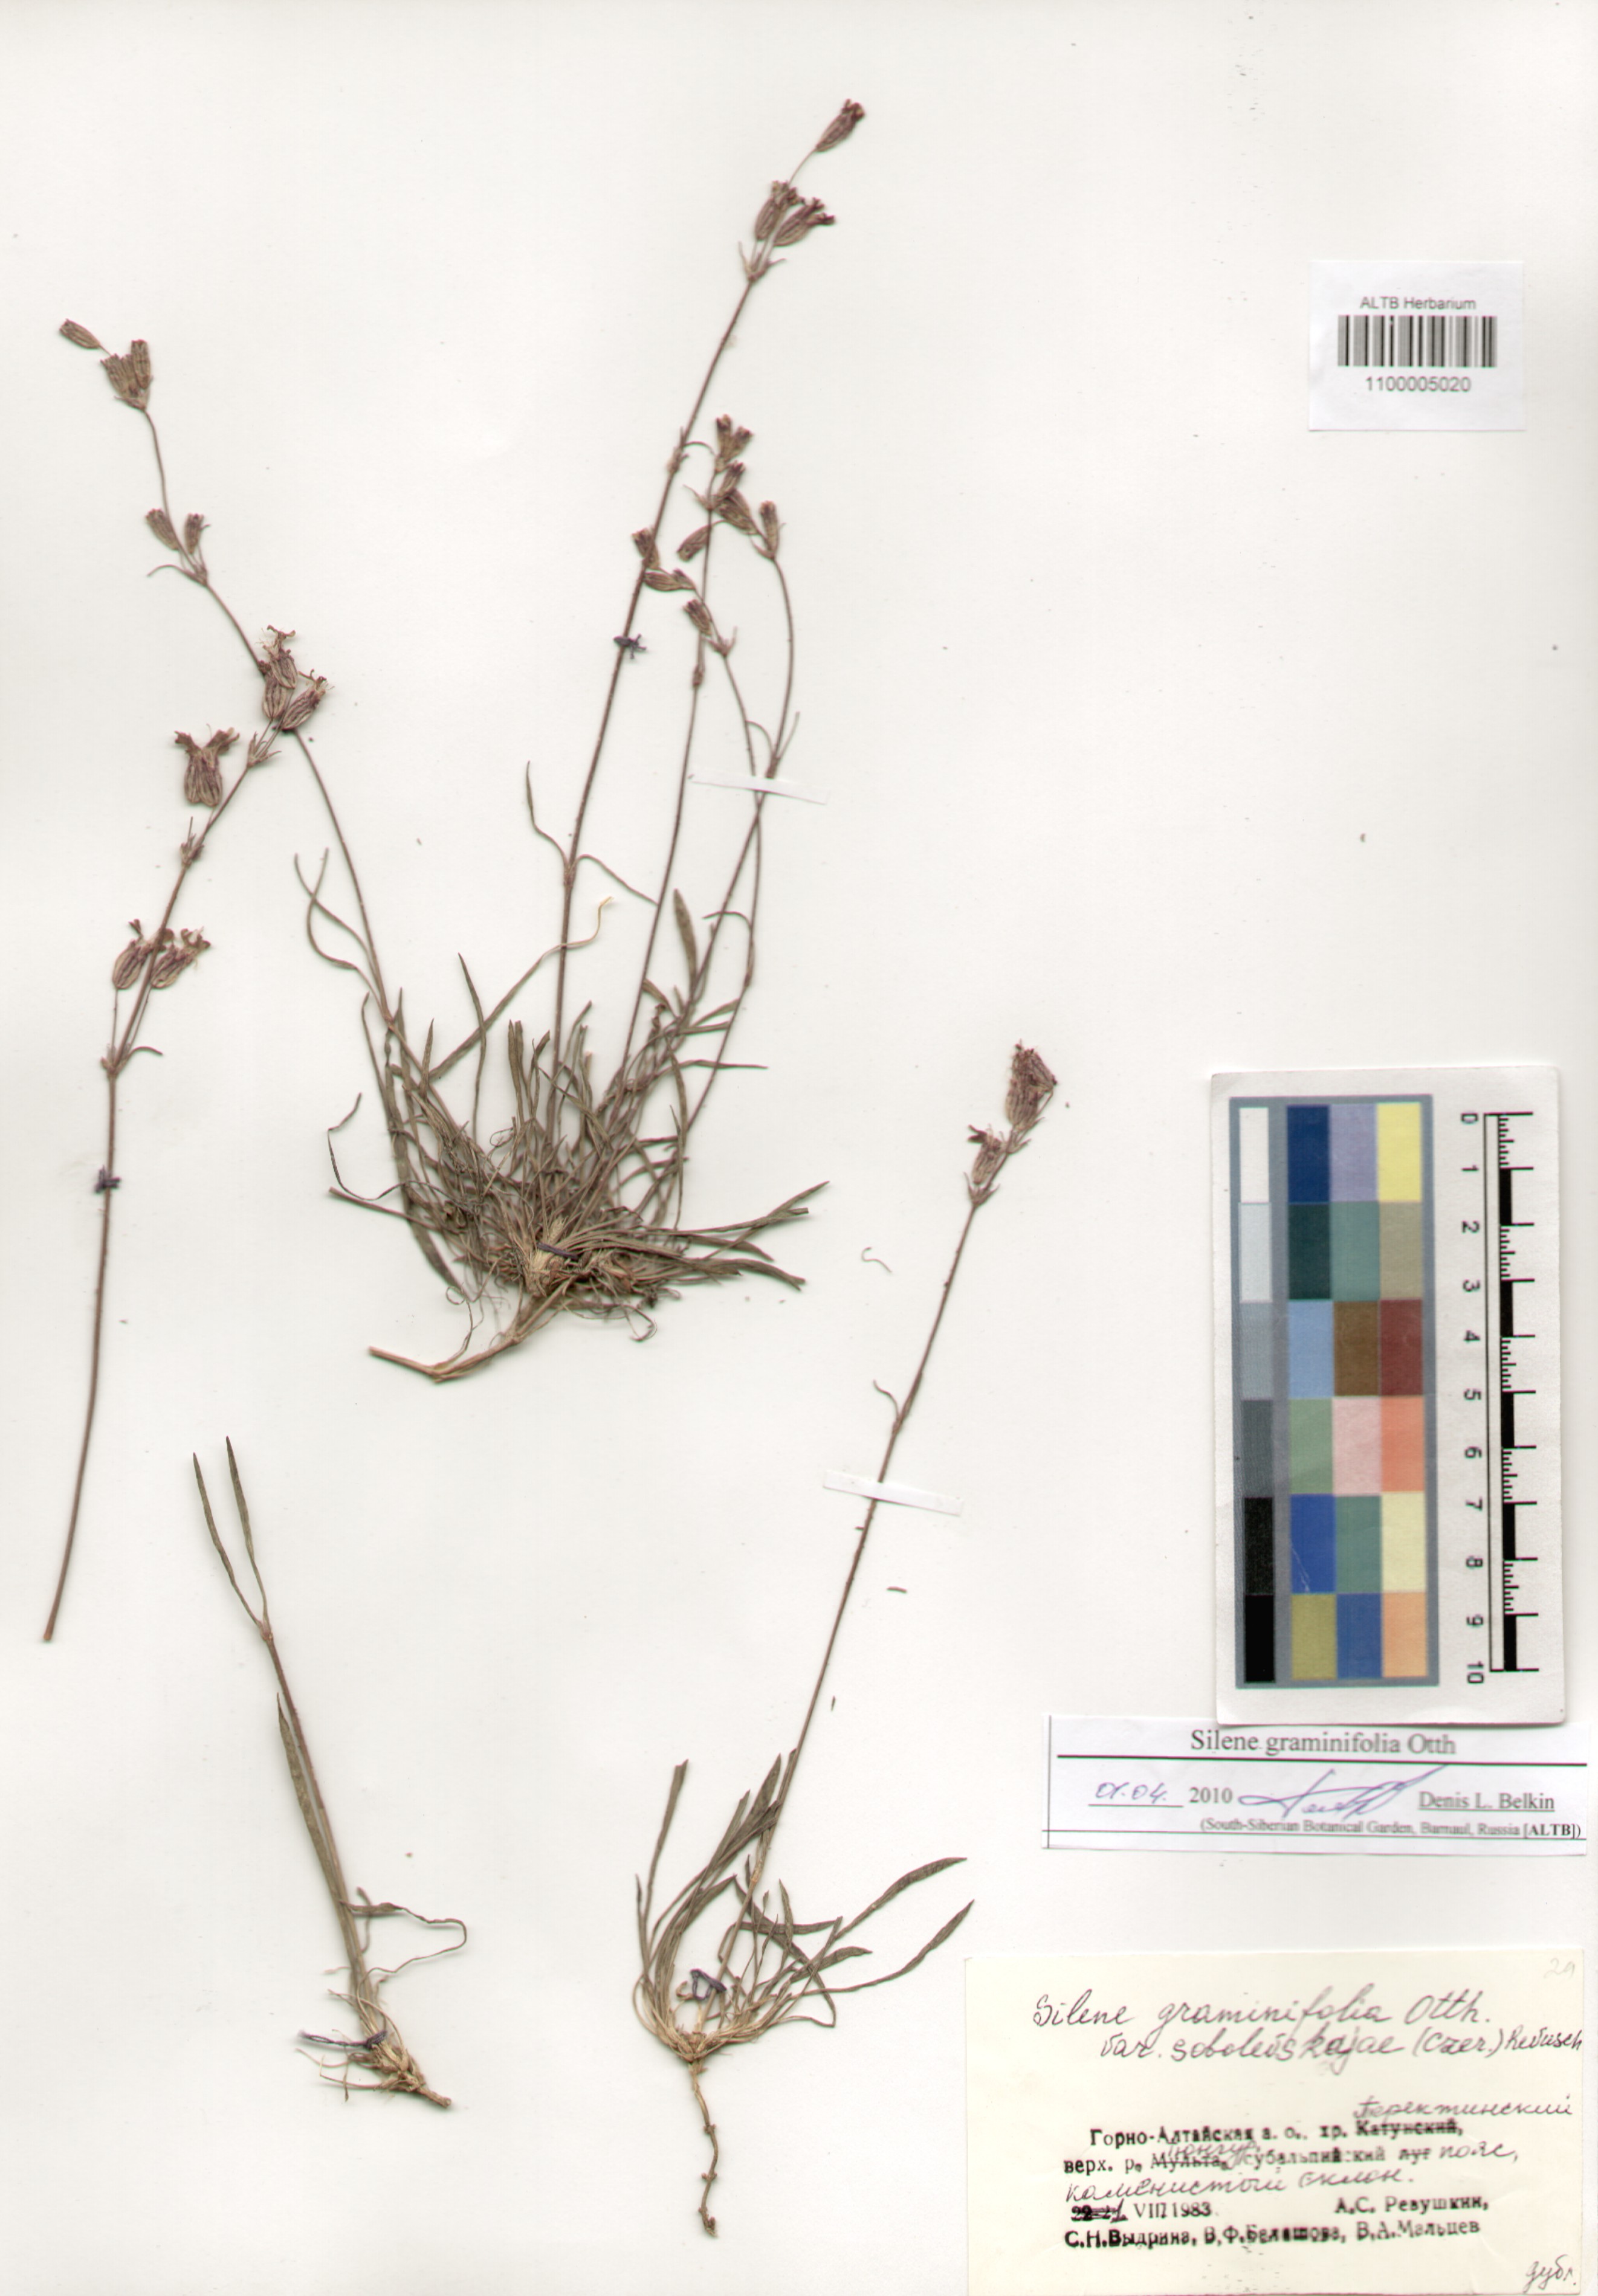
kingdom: Plantae
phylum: Tracheophyta
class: Magnoliopsida
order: Caryophyllales
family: Caryophyllaceae
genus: Silene
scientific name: Silene graminifolia
